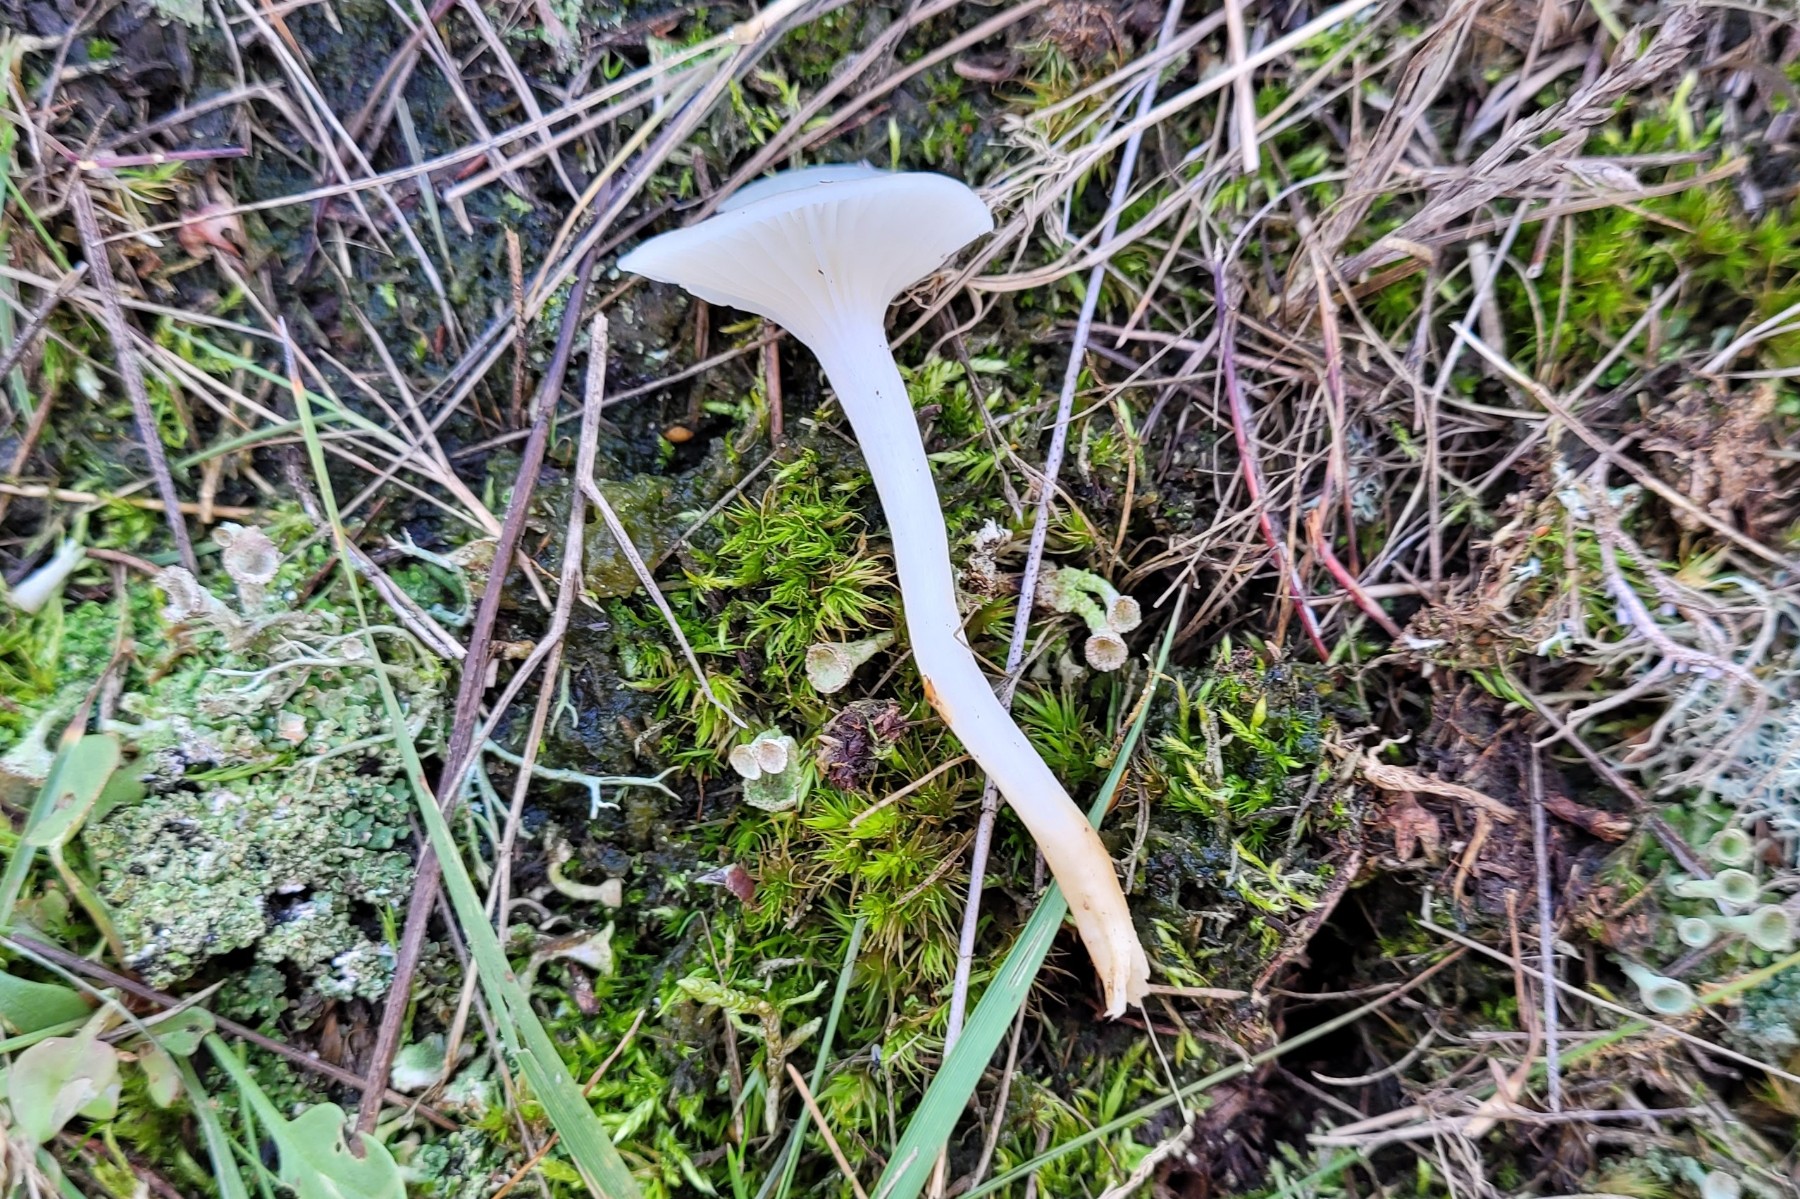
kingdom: Fungi
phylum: Basidiomycota
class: Agaricomycetes
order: Agaricales
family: Hygrophoraceae
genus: Cuphophyllus
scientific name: Cuphophyllus virgineus
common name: snehvid vokshat
